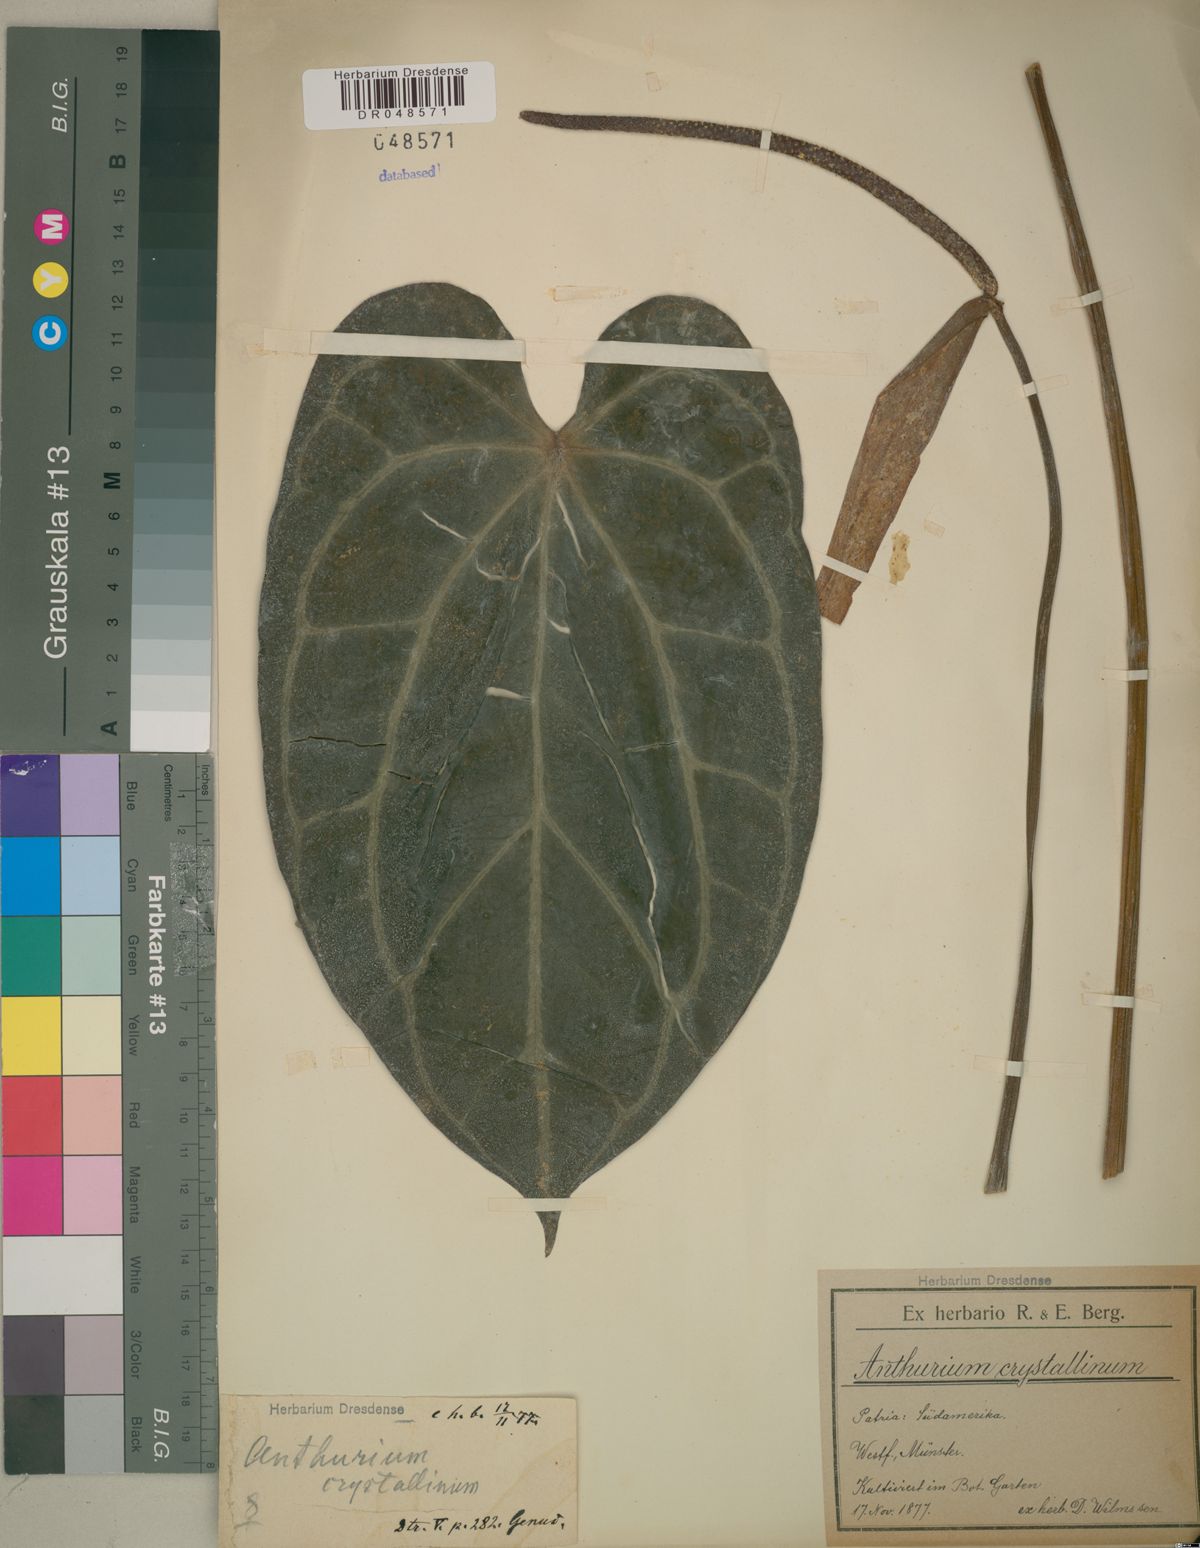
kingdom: Plantae
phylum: Tracheophyta
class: Liliopsida
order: Alismatales
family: Araceae
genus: Anthurium
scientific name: Anthurium crystallinum
